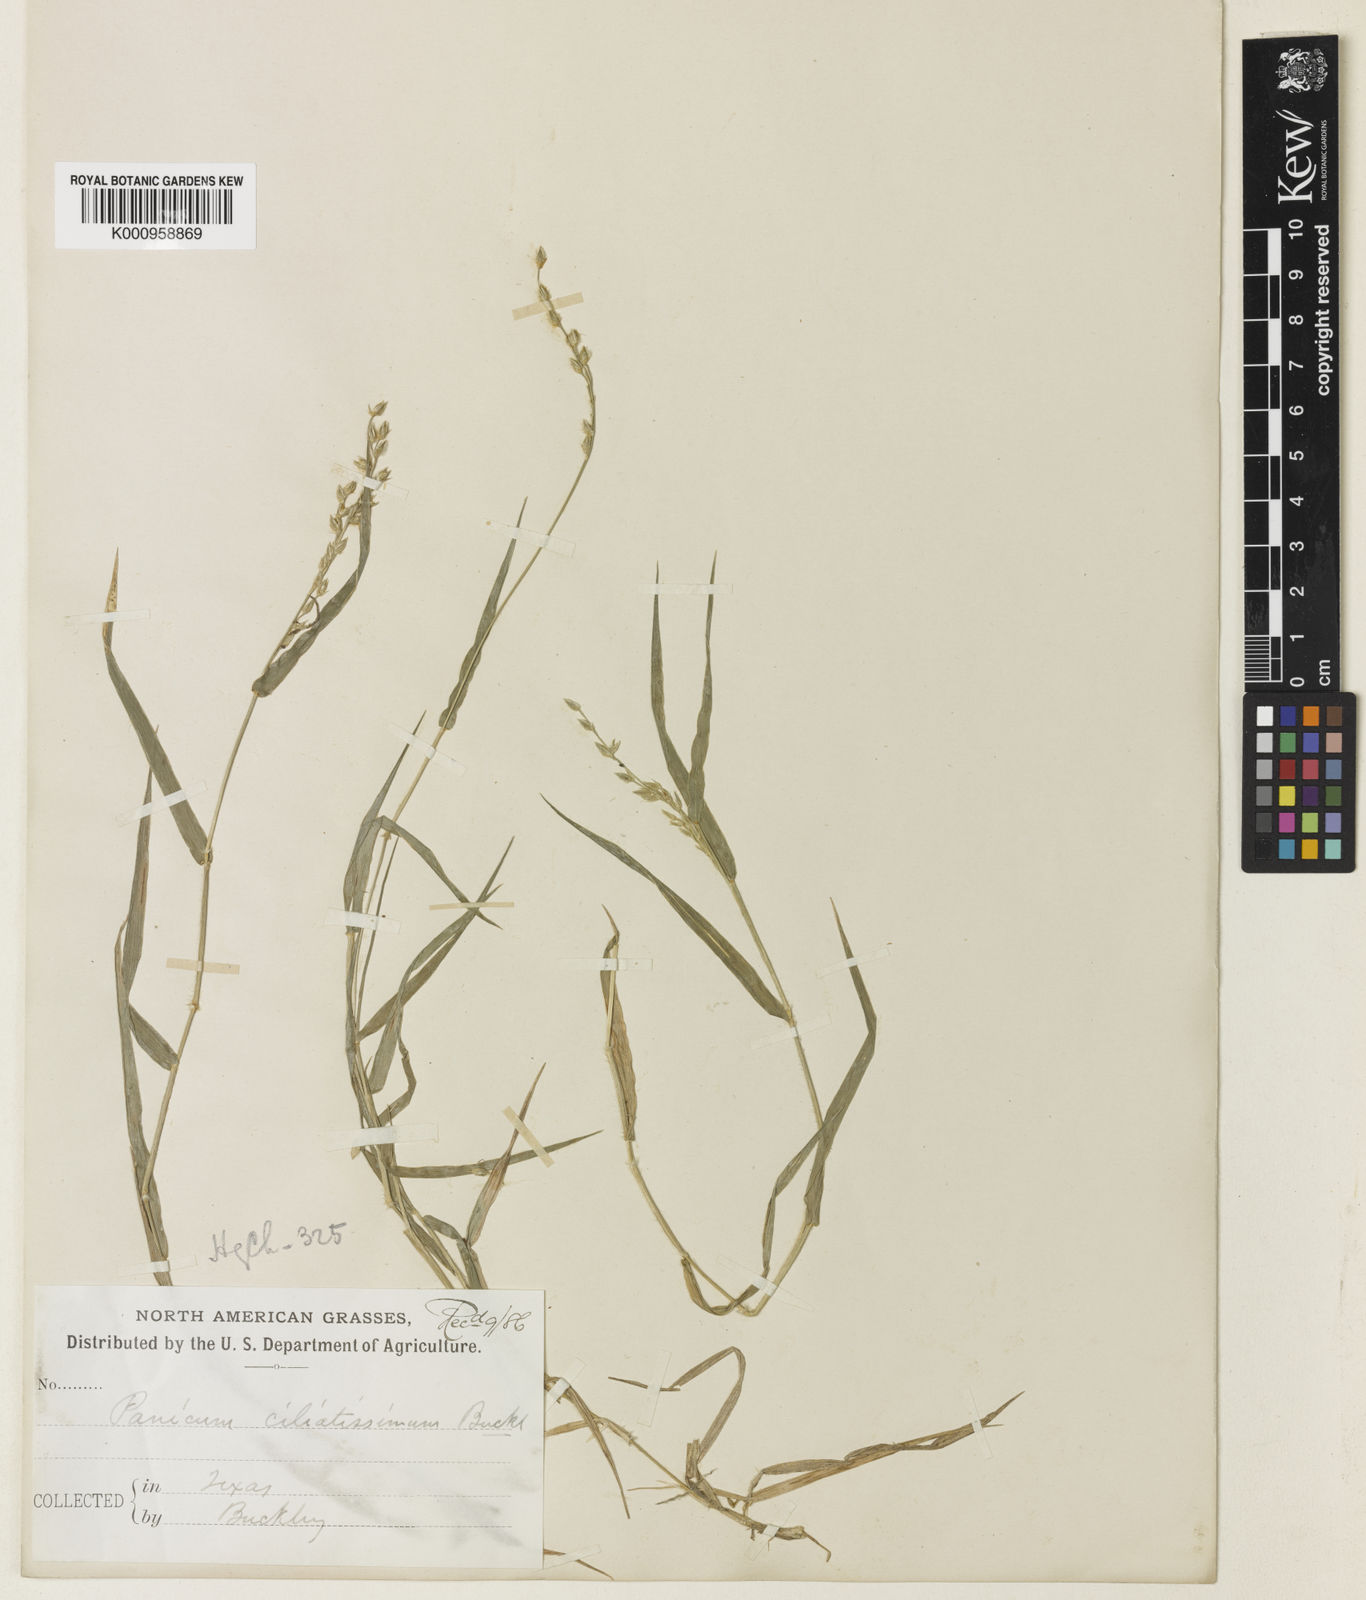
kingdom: Plantae
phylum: Tracheophyta
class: Liliopsida
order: Poales
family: Poaceae
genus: Urochloa
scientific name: Urochloa ciliatissima
